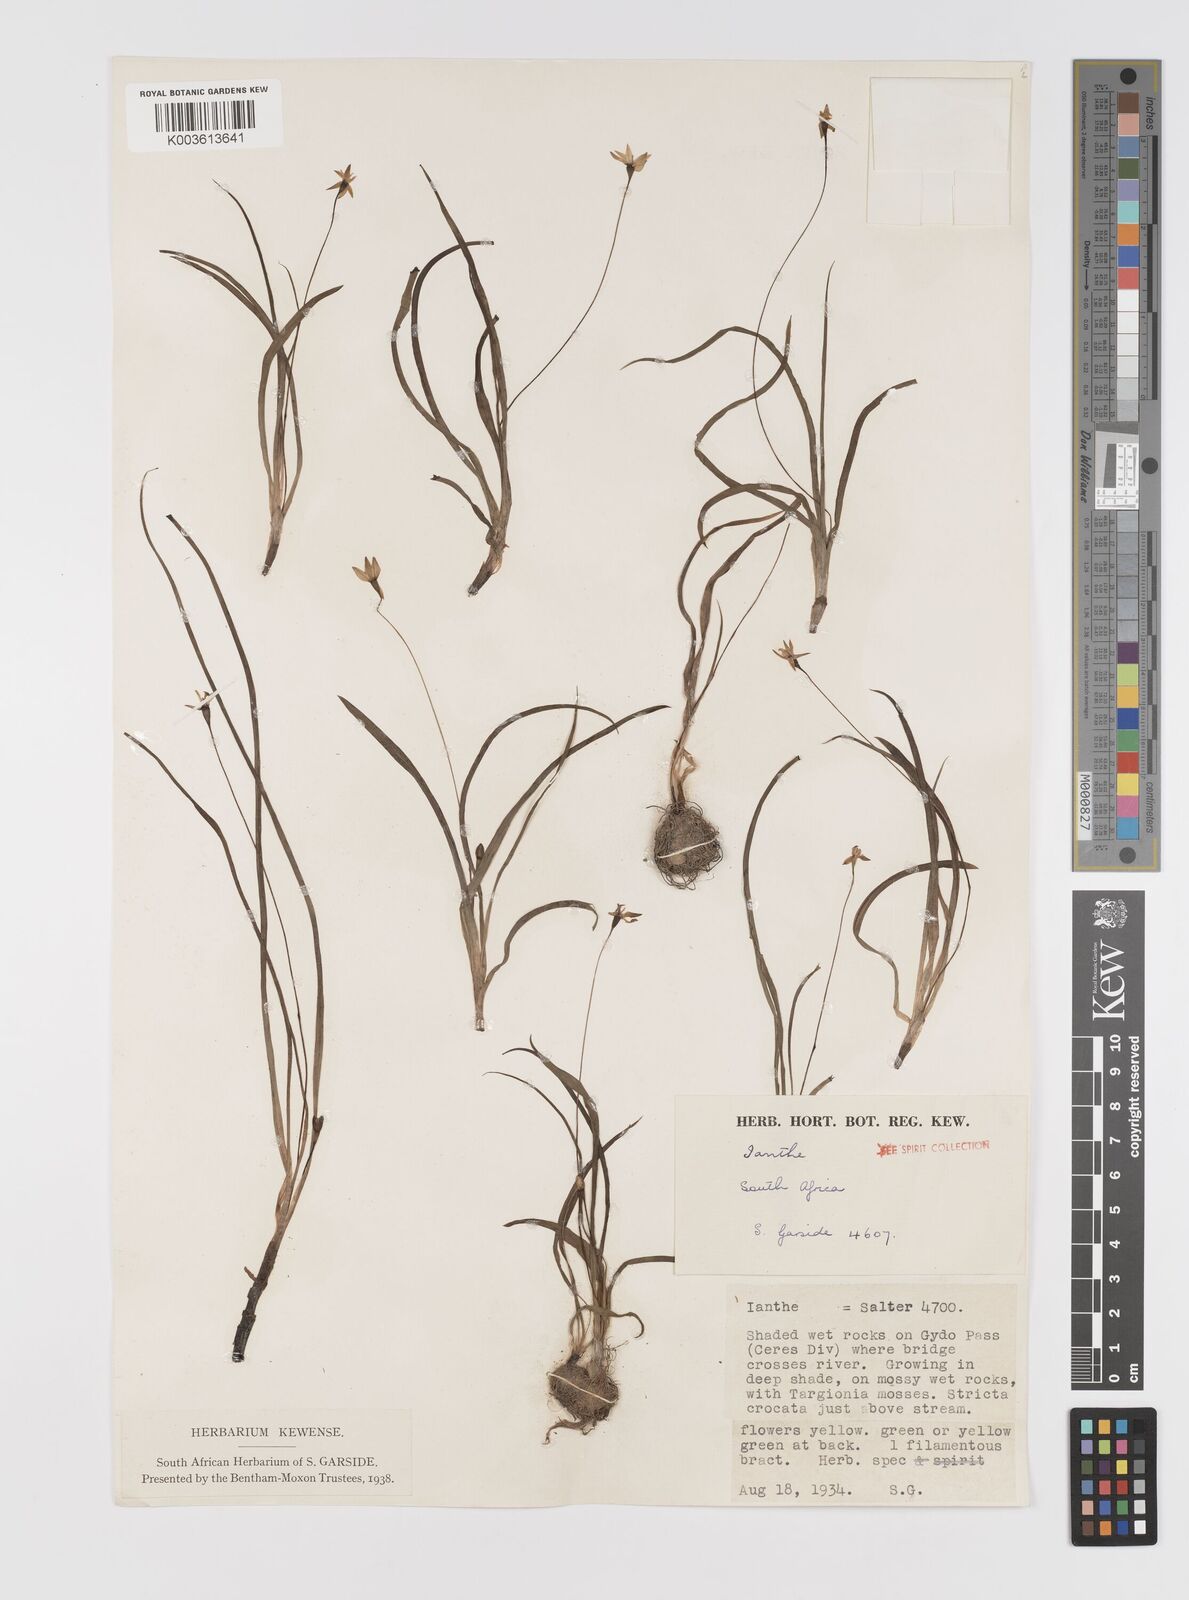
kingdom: Plantae
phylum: Tracheophyta
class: Liliopsida
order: Asparagales
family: Hypoxidaceae
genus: Pauridia
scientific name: Pauridia
